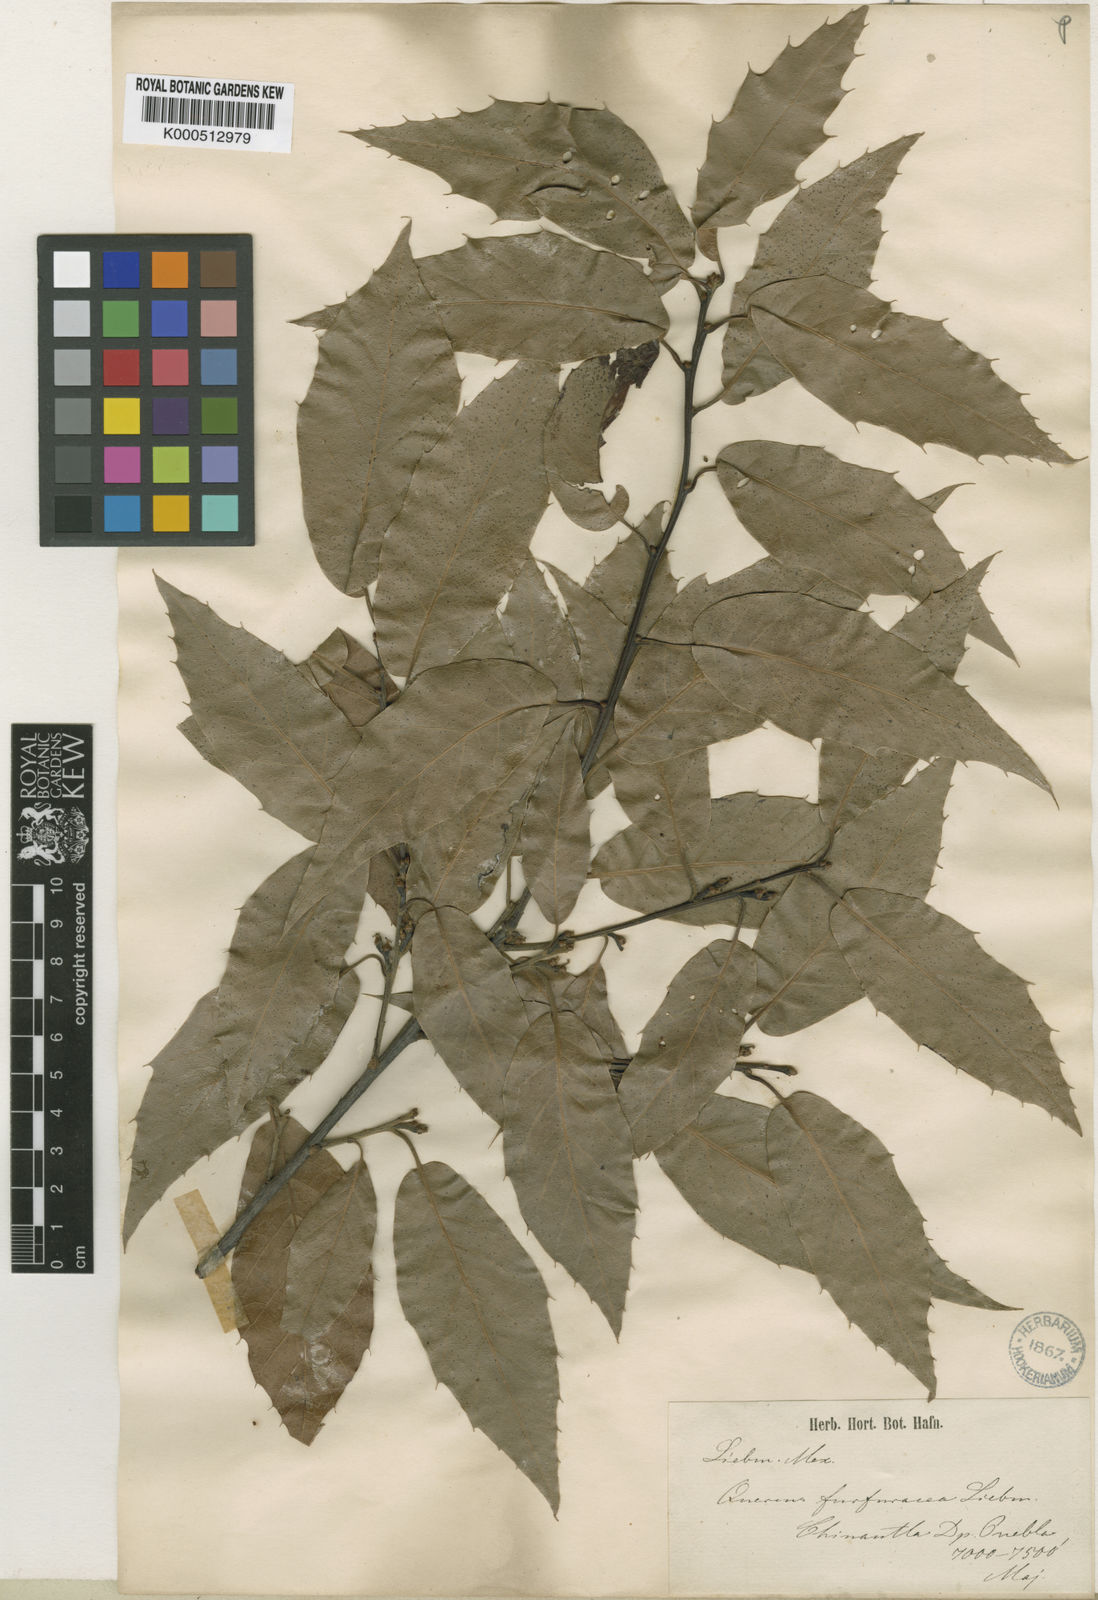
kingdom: Plantae
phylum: Tracheophyta
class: Magnoliopsida
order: Fagales
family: Fagaceae
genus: Quercus
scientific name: Quercus furfuracea
